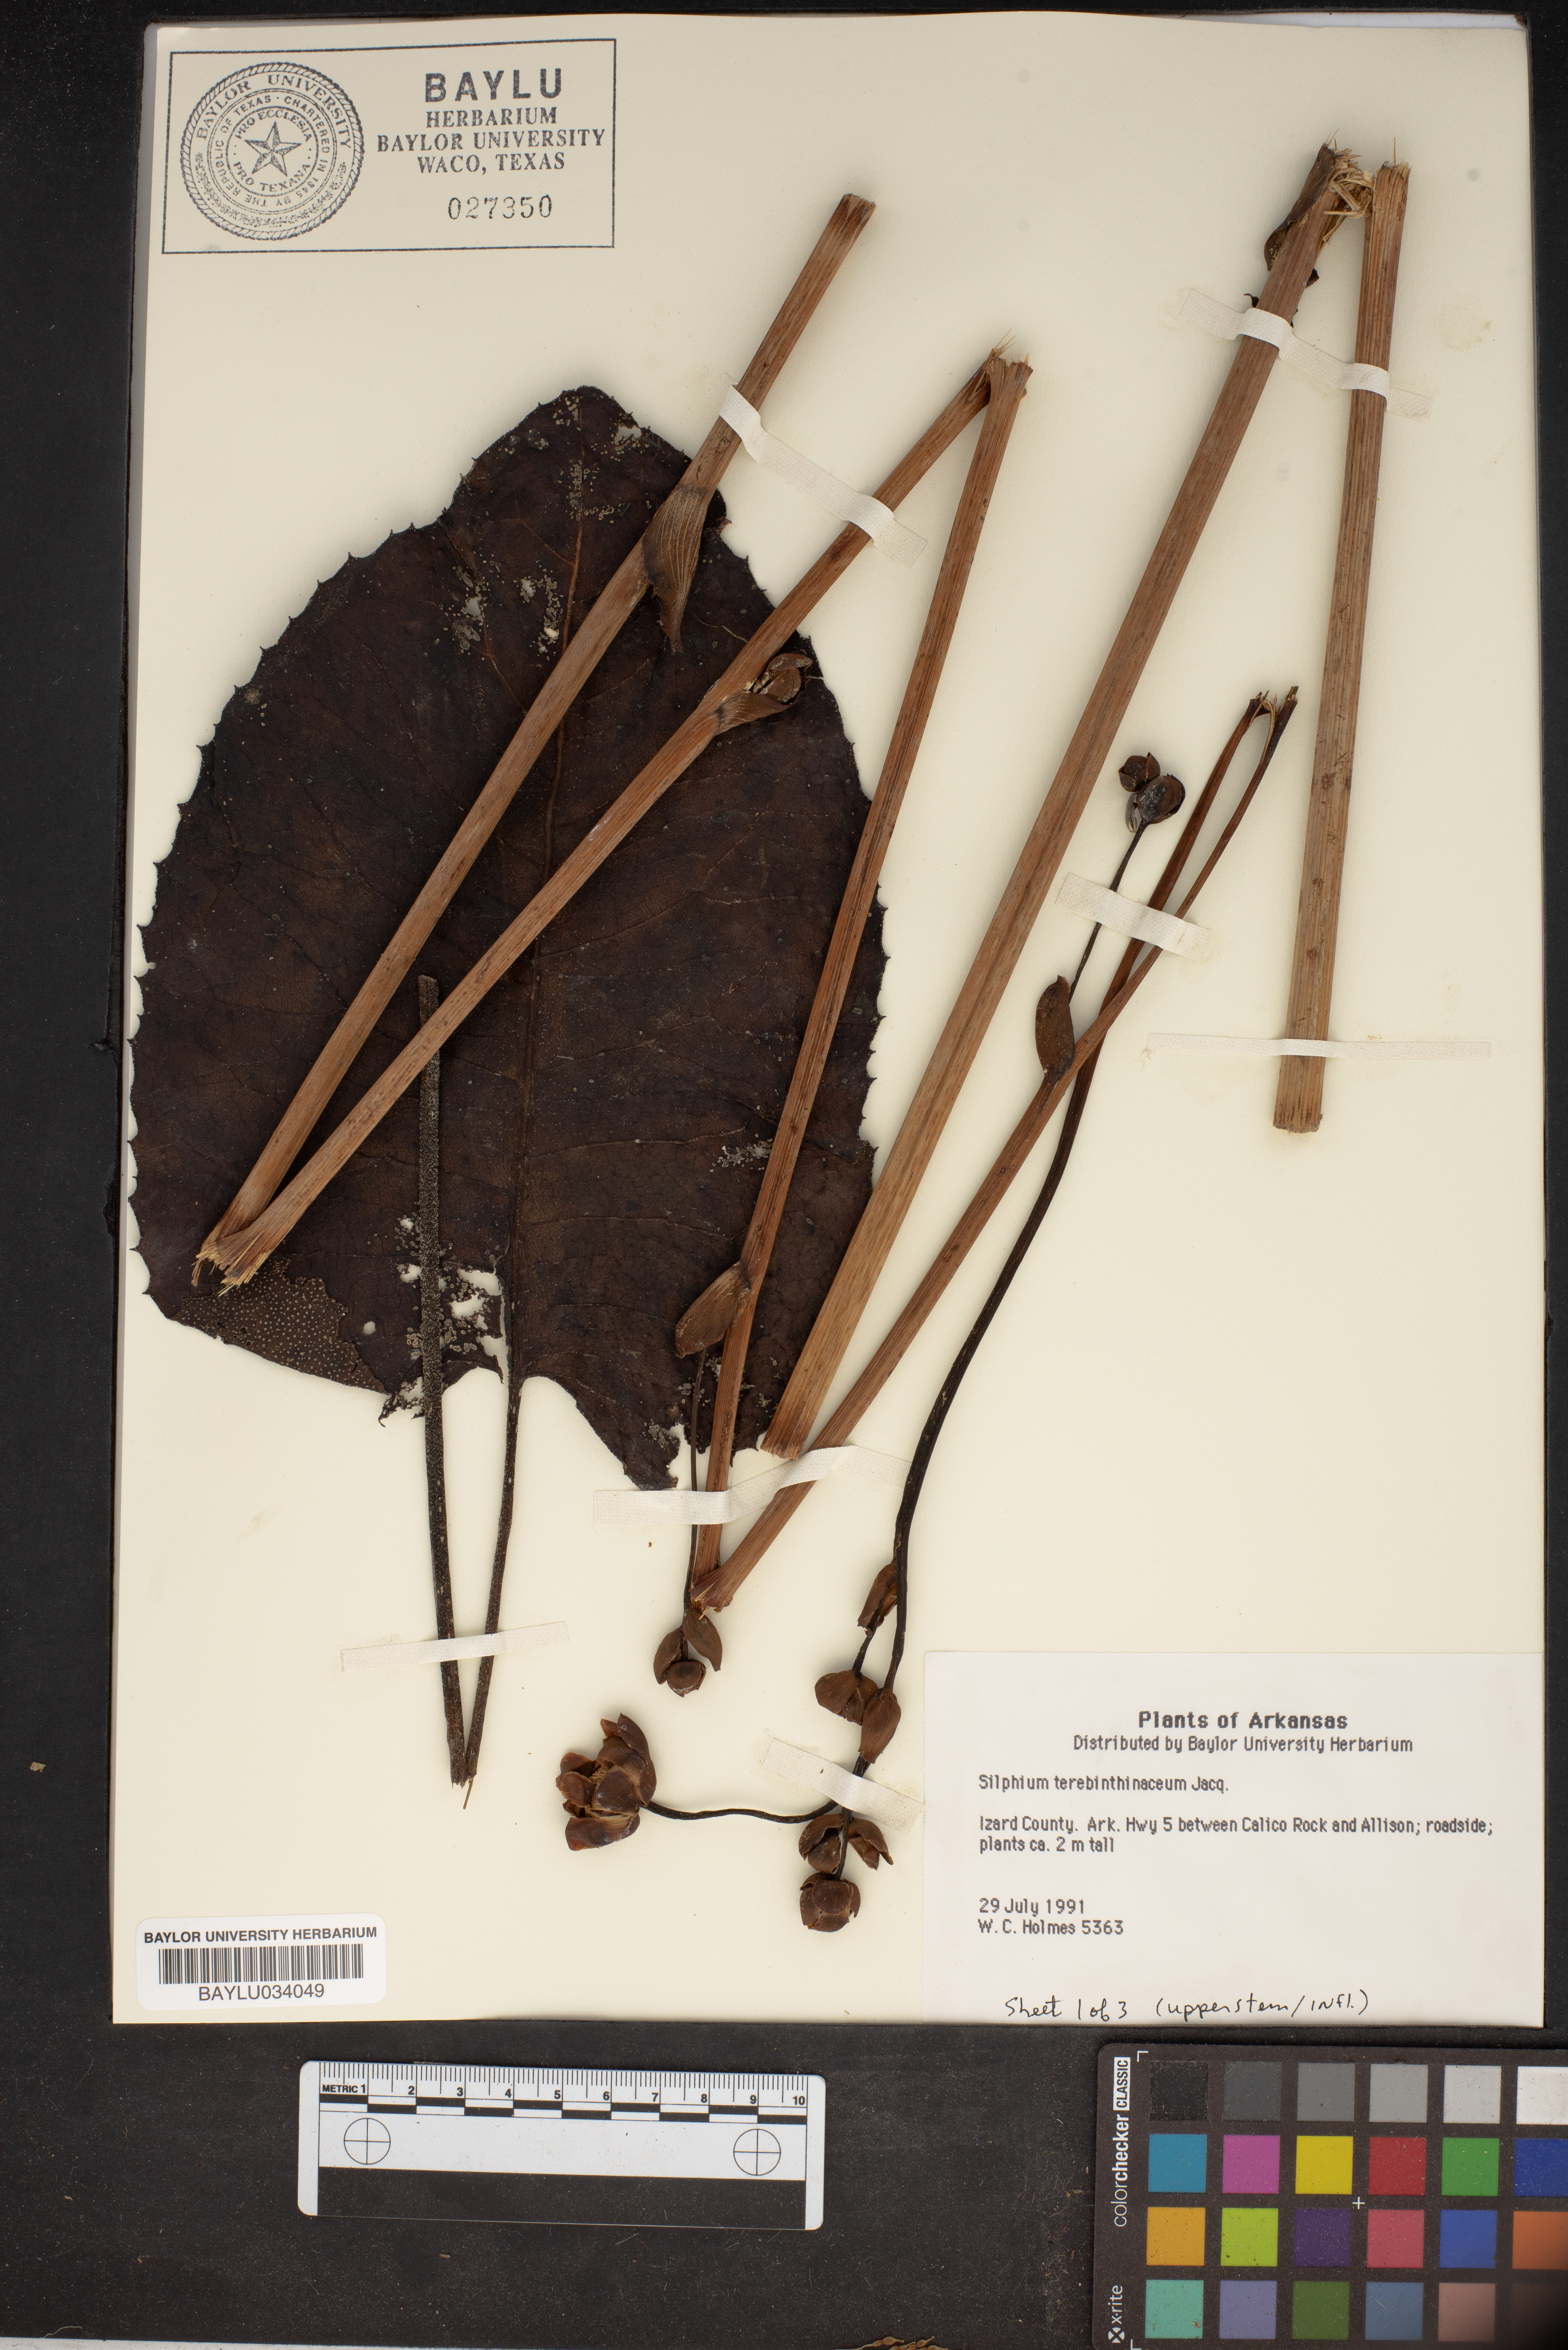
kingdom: Plantae
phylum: Tracheophyta
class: Magnoliopsida
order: Asterales
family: Asteraceae
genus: Silphium
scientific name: Silphium terebinthinaceum
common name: Basal-leaf rosinweed
